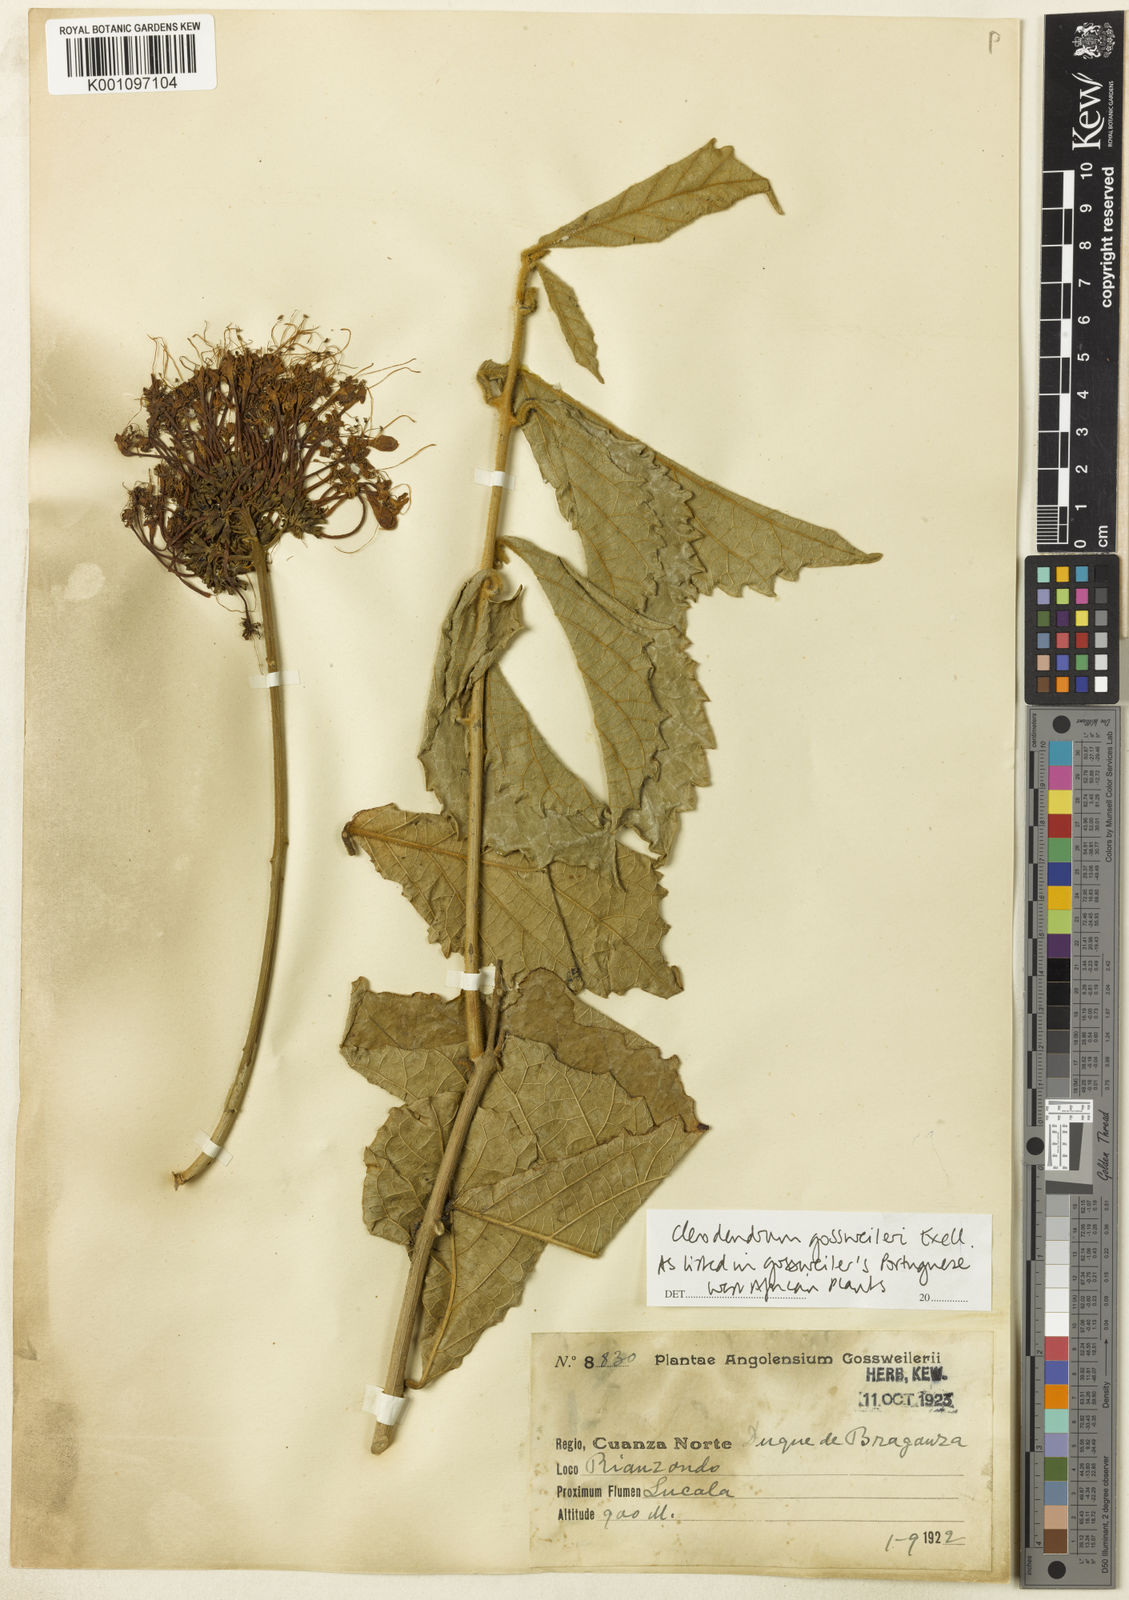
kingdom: Plantae
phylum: Tracheophyta
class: Magnoliopsida
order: Lamiales
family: Lamiaceae
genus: Clerodendrum
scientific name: Clerodendrum schweinfurthii
